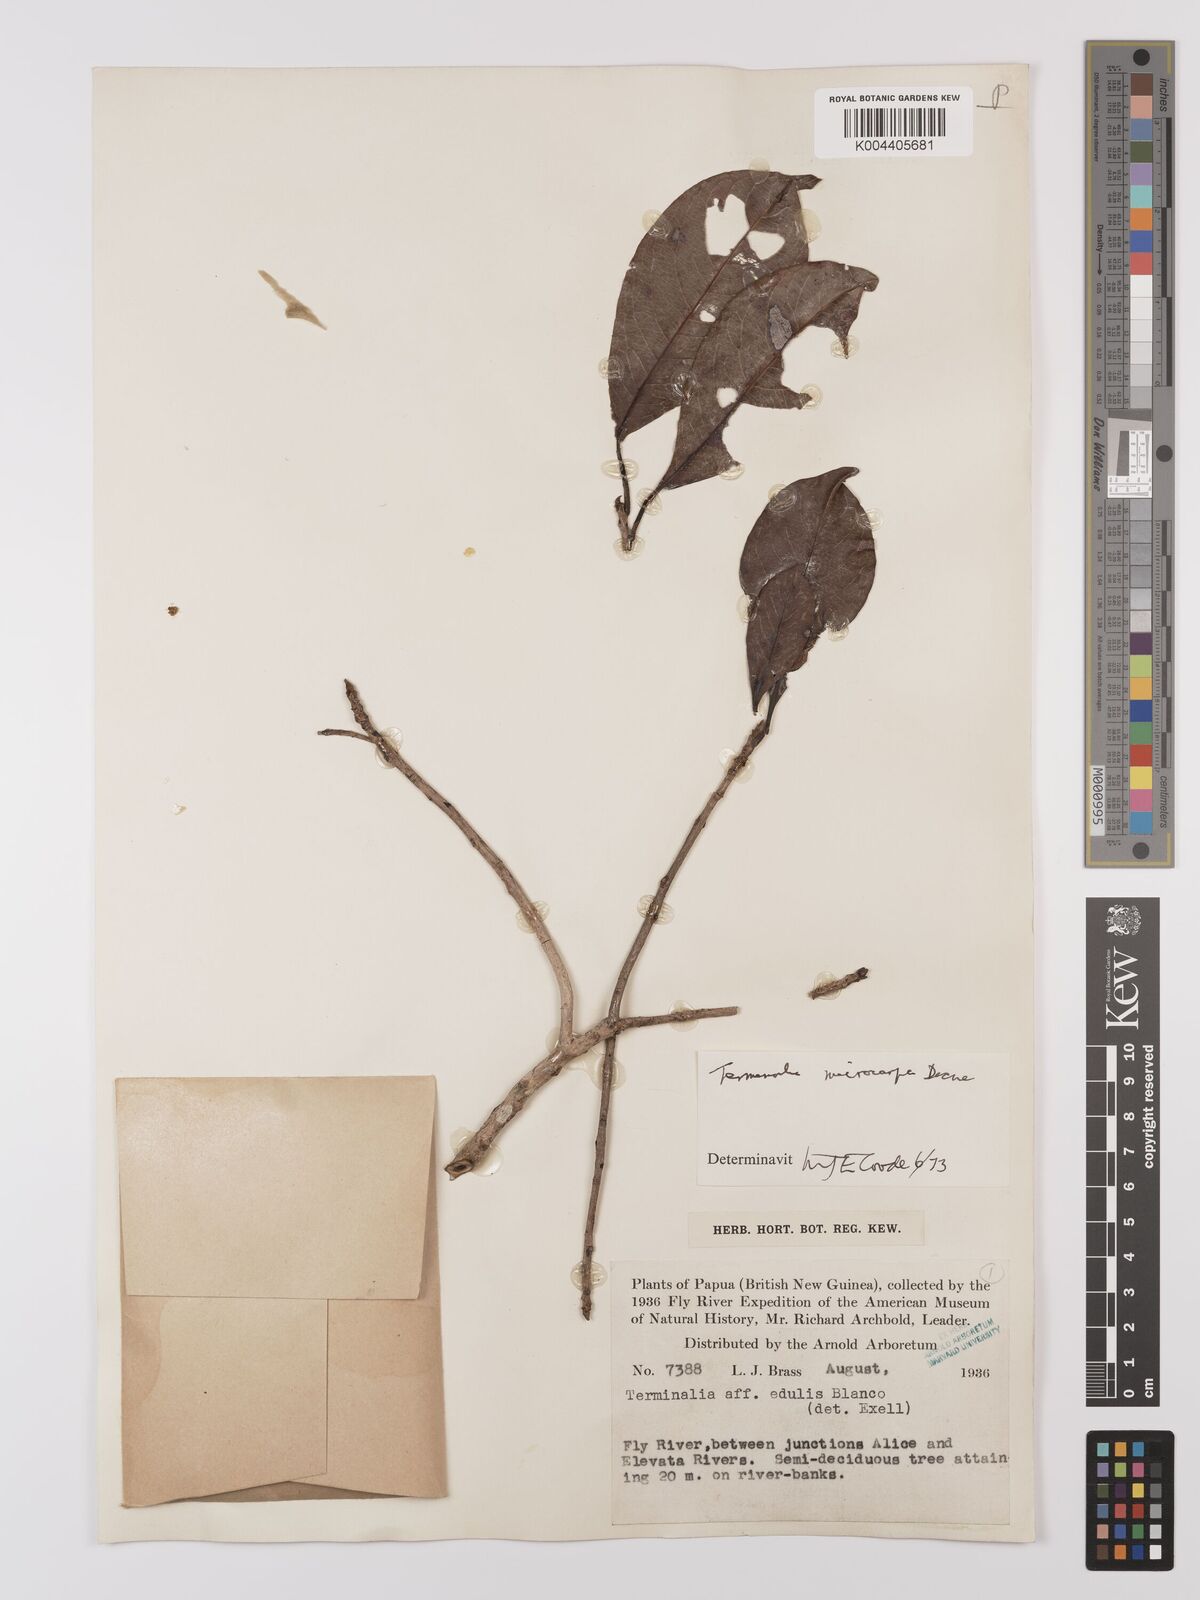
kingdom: Plantae
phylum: Tracheophyta
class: Magnoliopsida
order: Myrtales
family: Combretaceae
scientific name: Combretaceae
